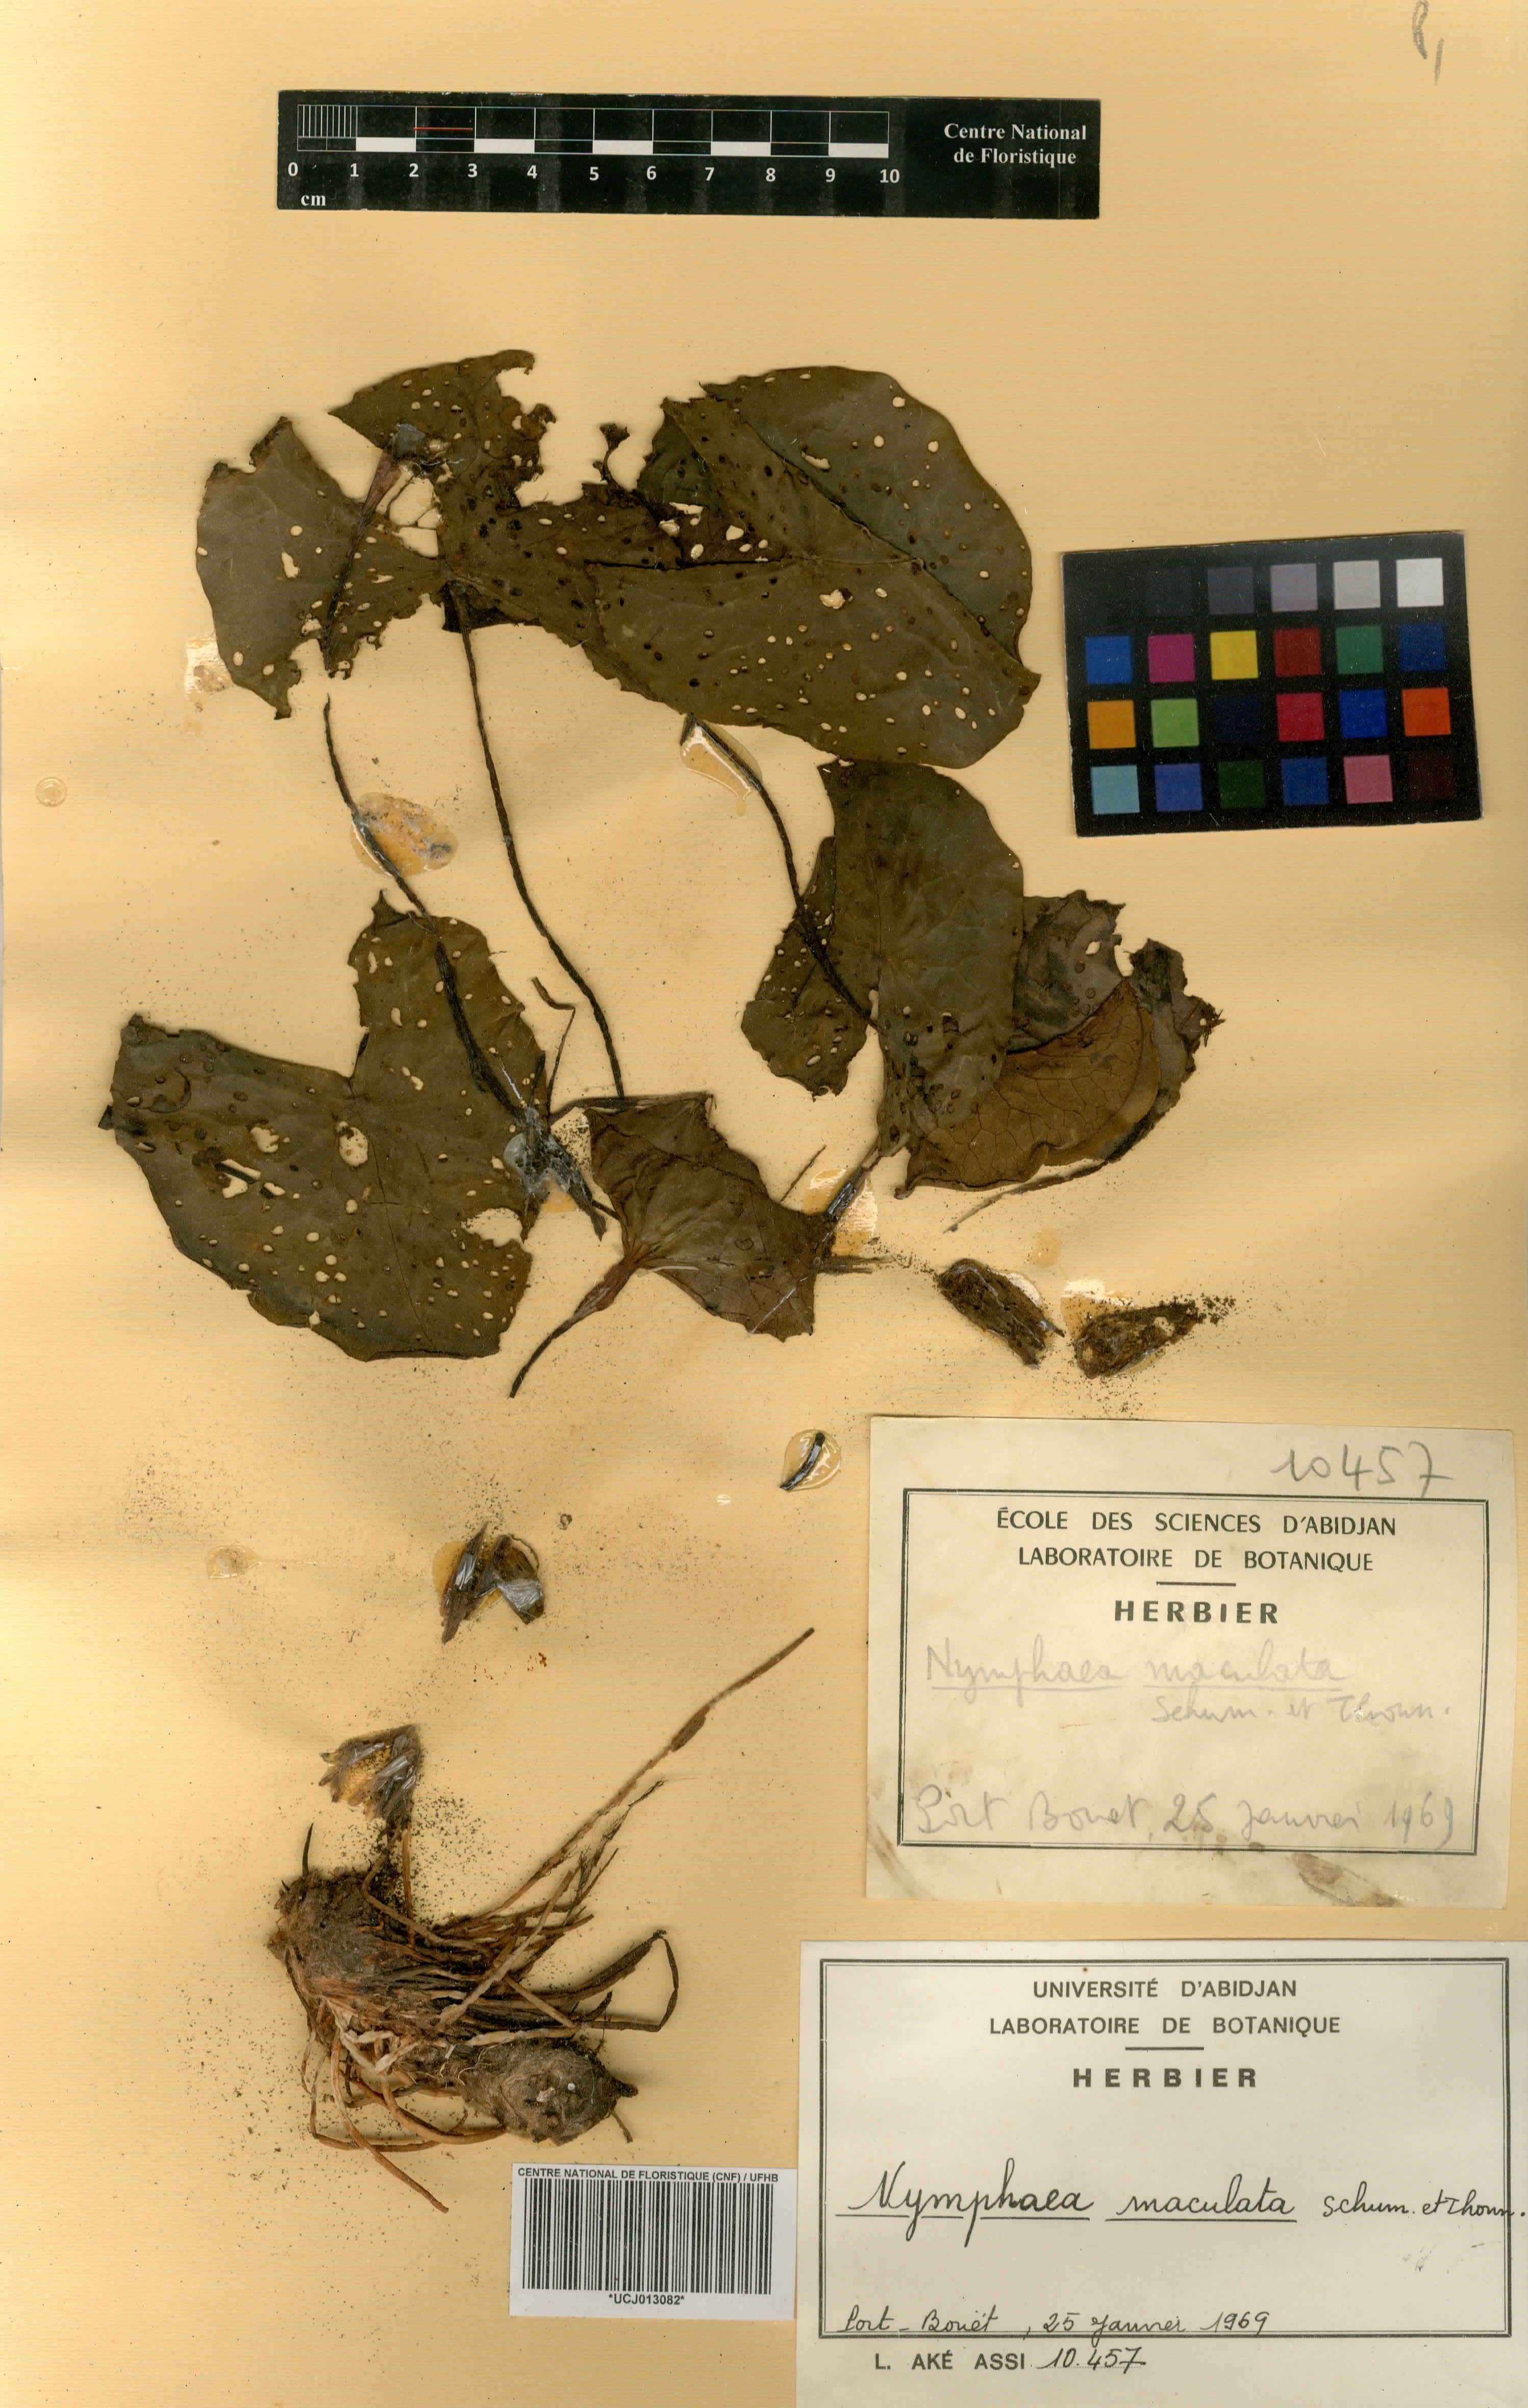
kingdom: Plantae
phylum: Tracheophyta
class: Magnoliopsida
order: Nymphaeales
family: Nymphaeaceae
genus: Nymphaea
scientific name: Nymphaea maculata
